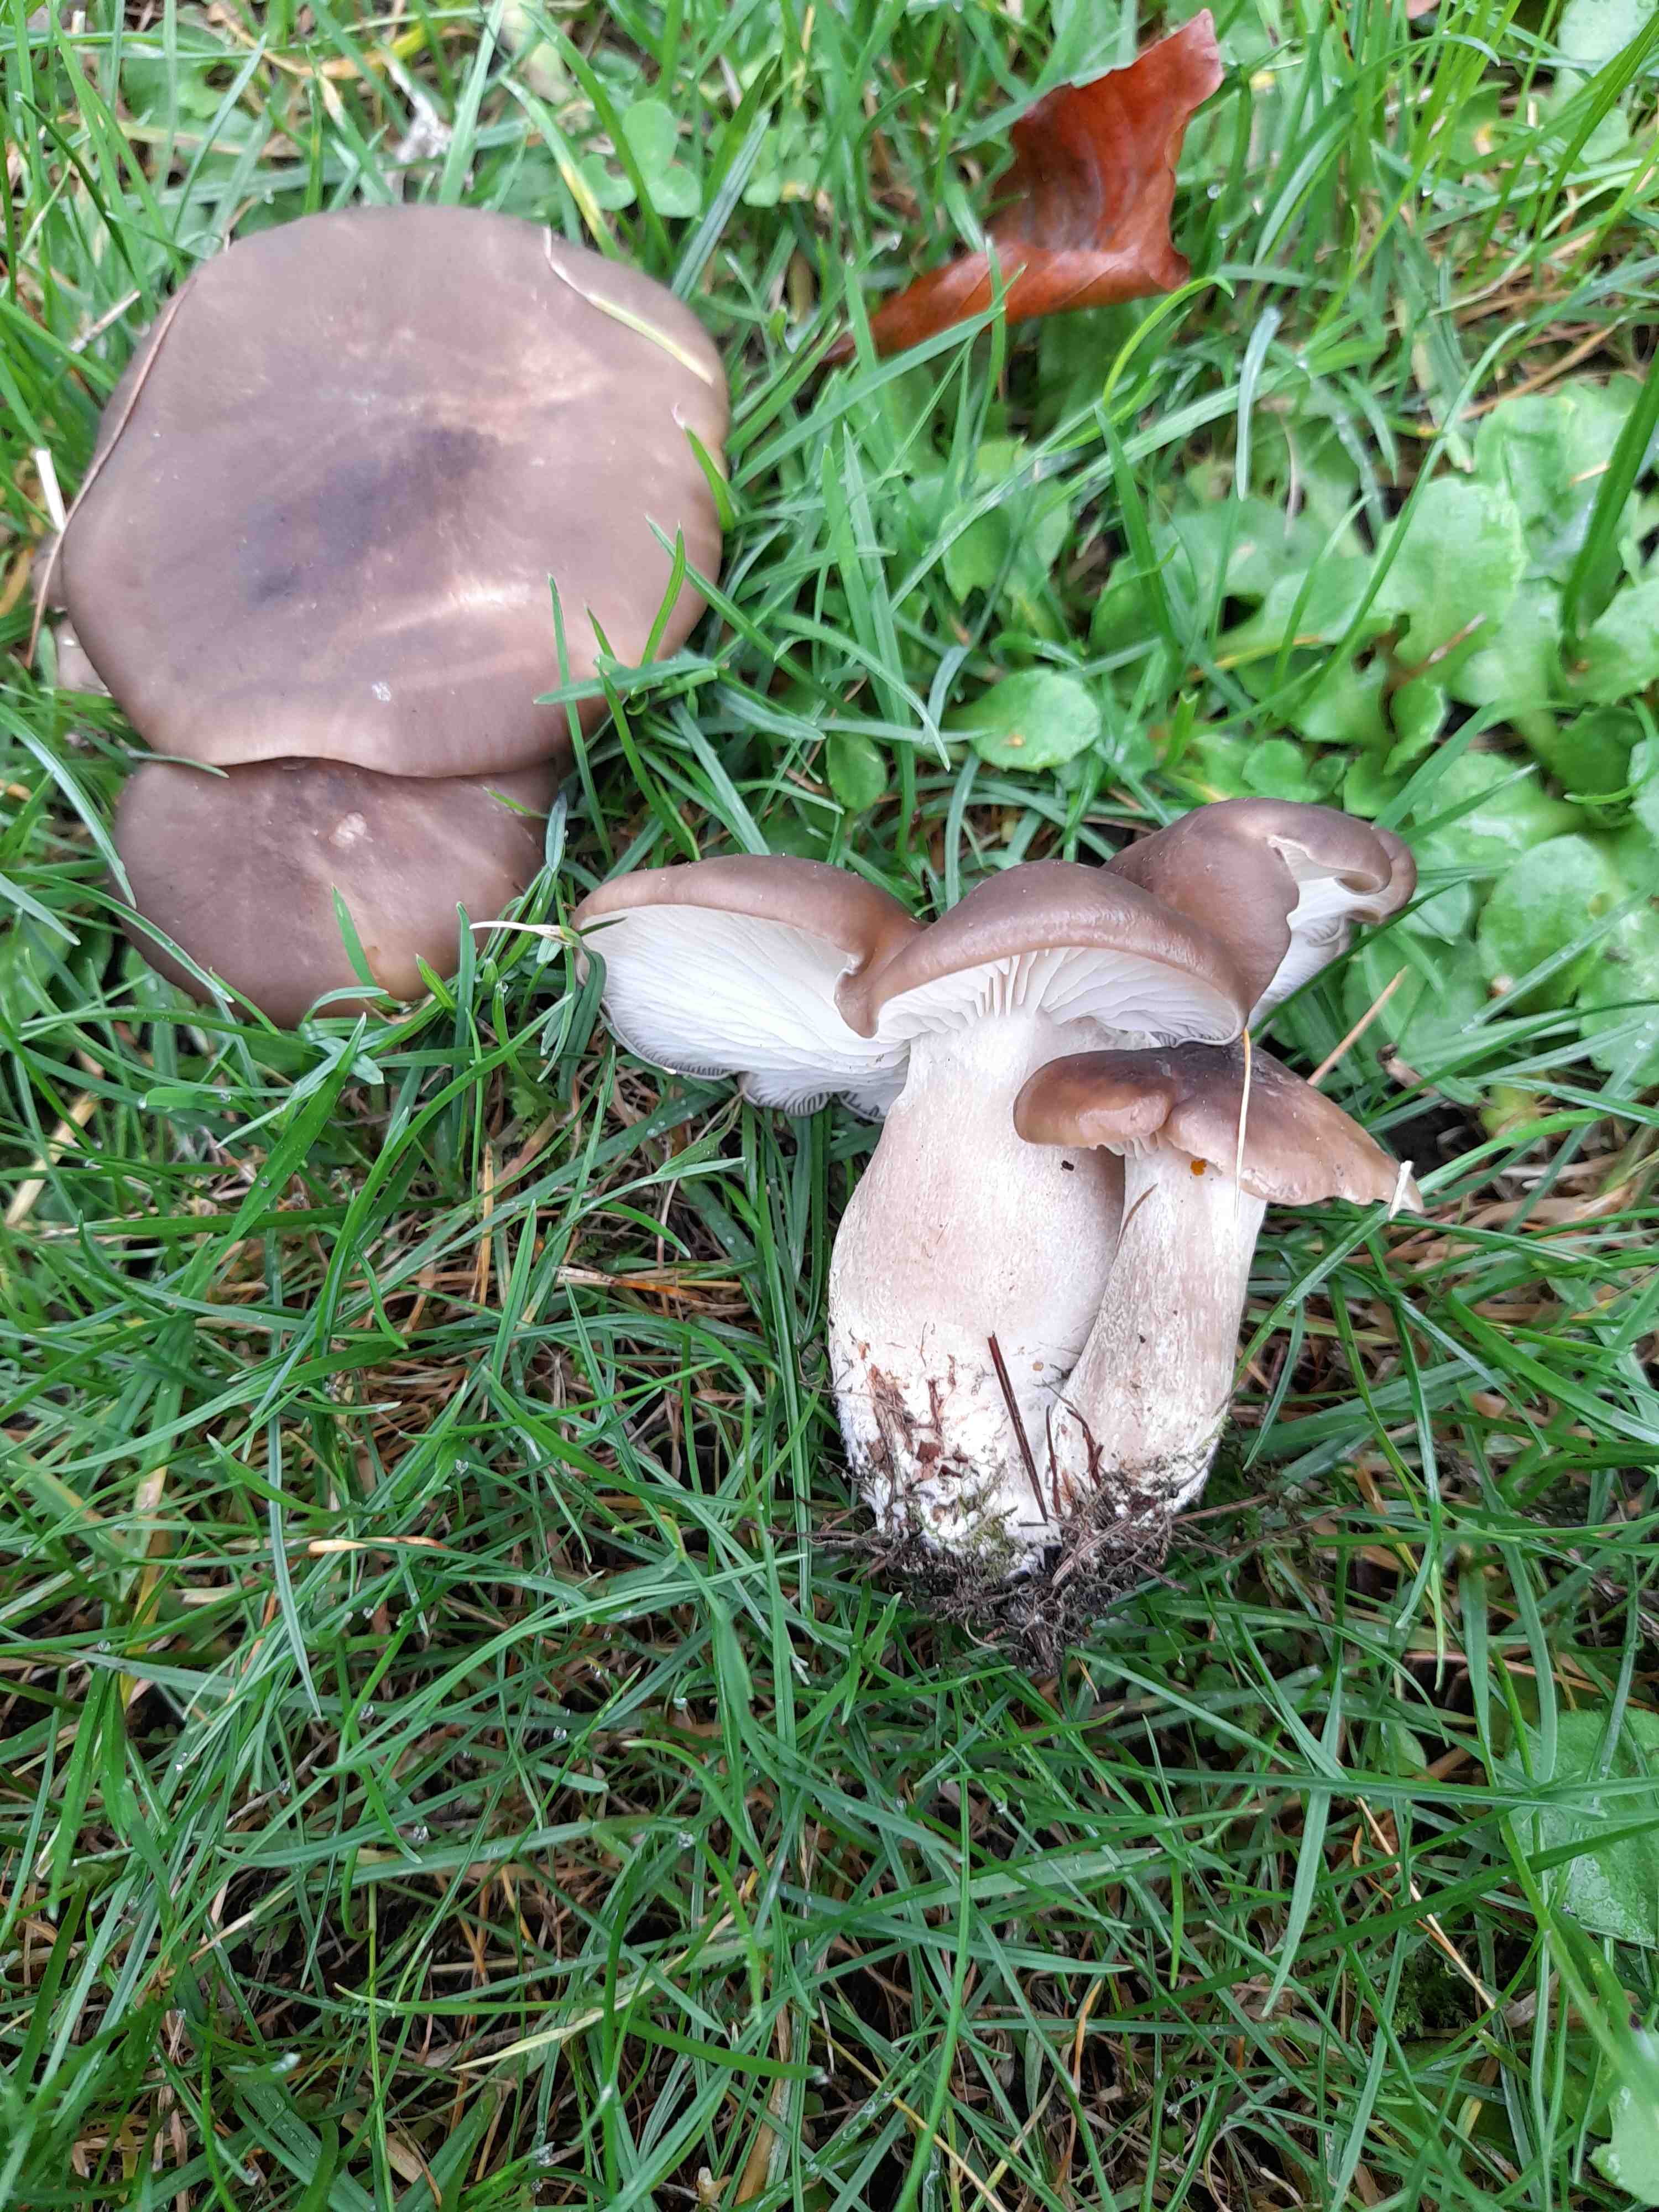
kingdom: Fungi
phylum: Basidiomycota
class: Agaricomycetes
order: Agaricales
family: Lyophyllaceae
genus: Lyophyllum
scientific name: Lyophyllum decastes
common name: Clustered domecap
